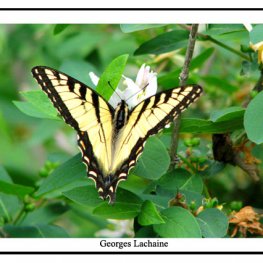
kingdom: Animalia
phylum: Arthropoda
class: Insecta
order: Lepidoptera
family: Papilionidae
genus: Pterourus
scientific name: Pterourus canadensis
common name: Canadian Tiger Swallowtail
